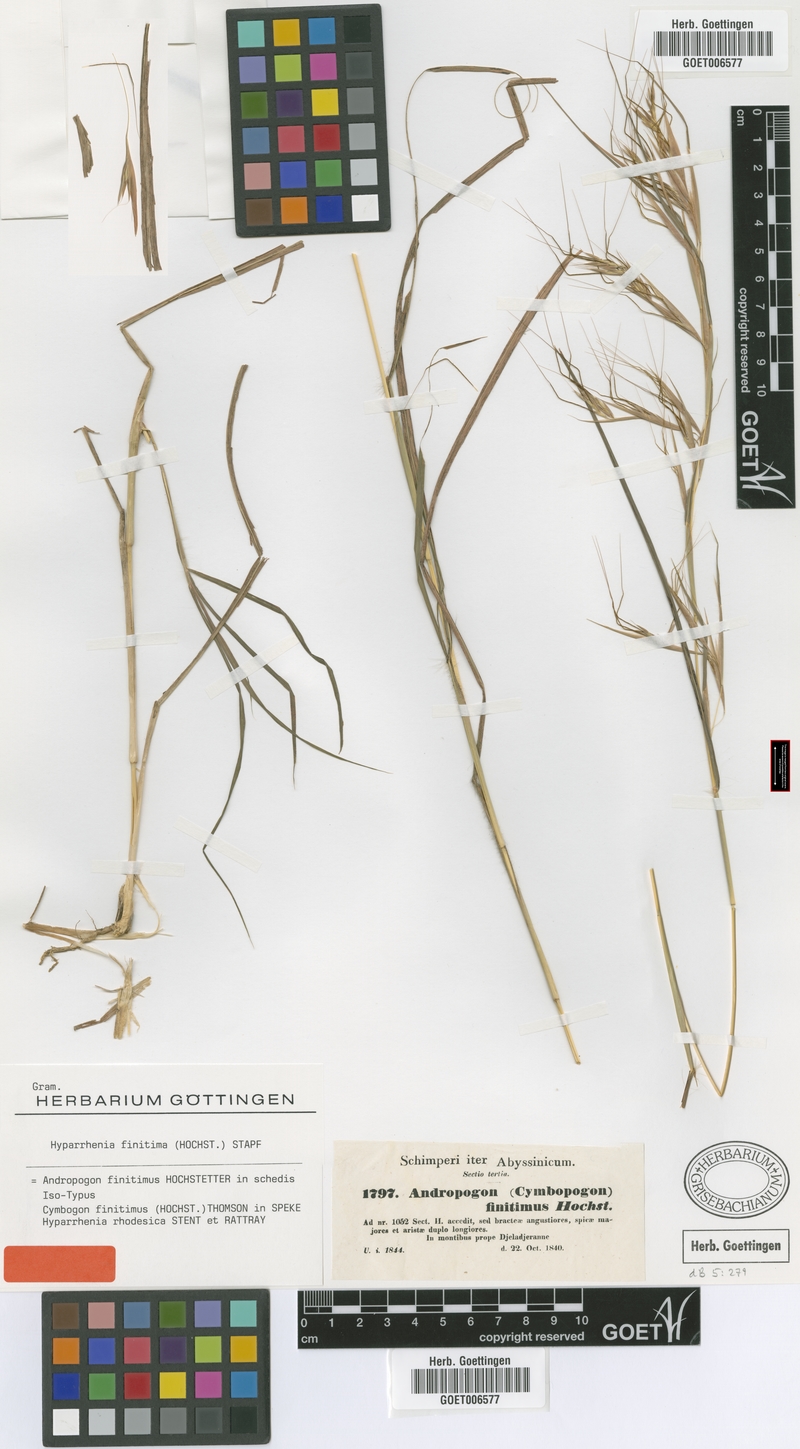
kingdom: Plantae
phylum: Tracheophyta
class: Liliopsida
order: Poales
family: Poaceae
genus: Hyparrhenia
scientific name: Hyparrhenia finitima
